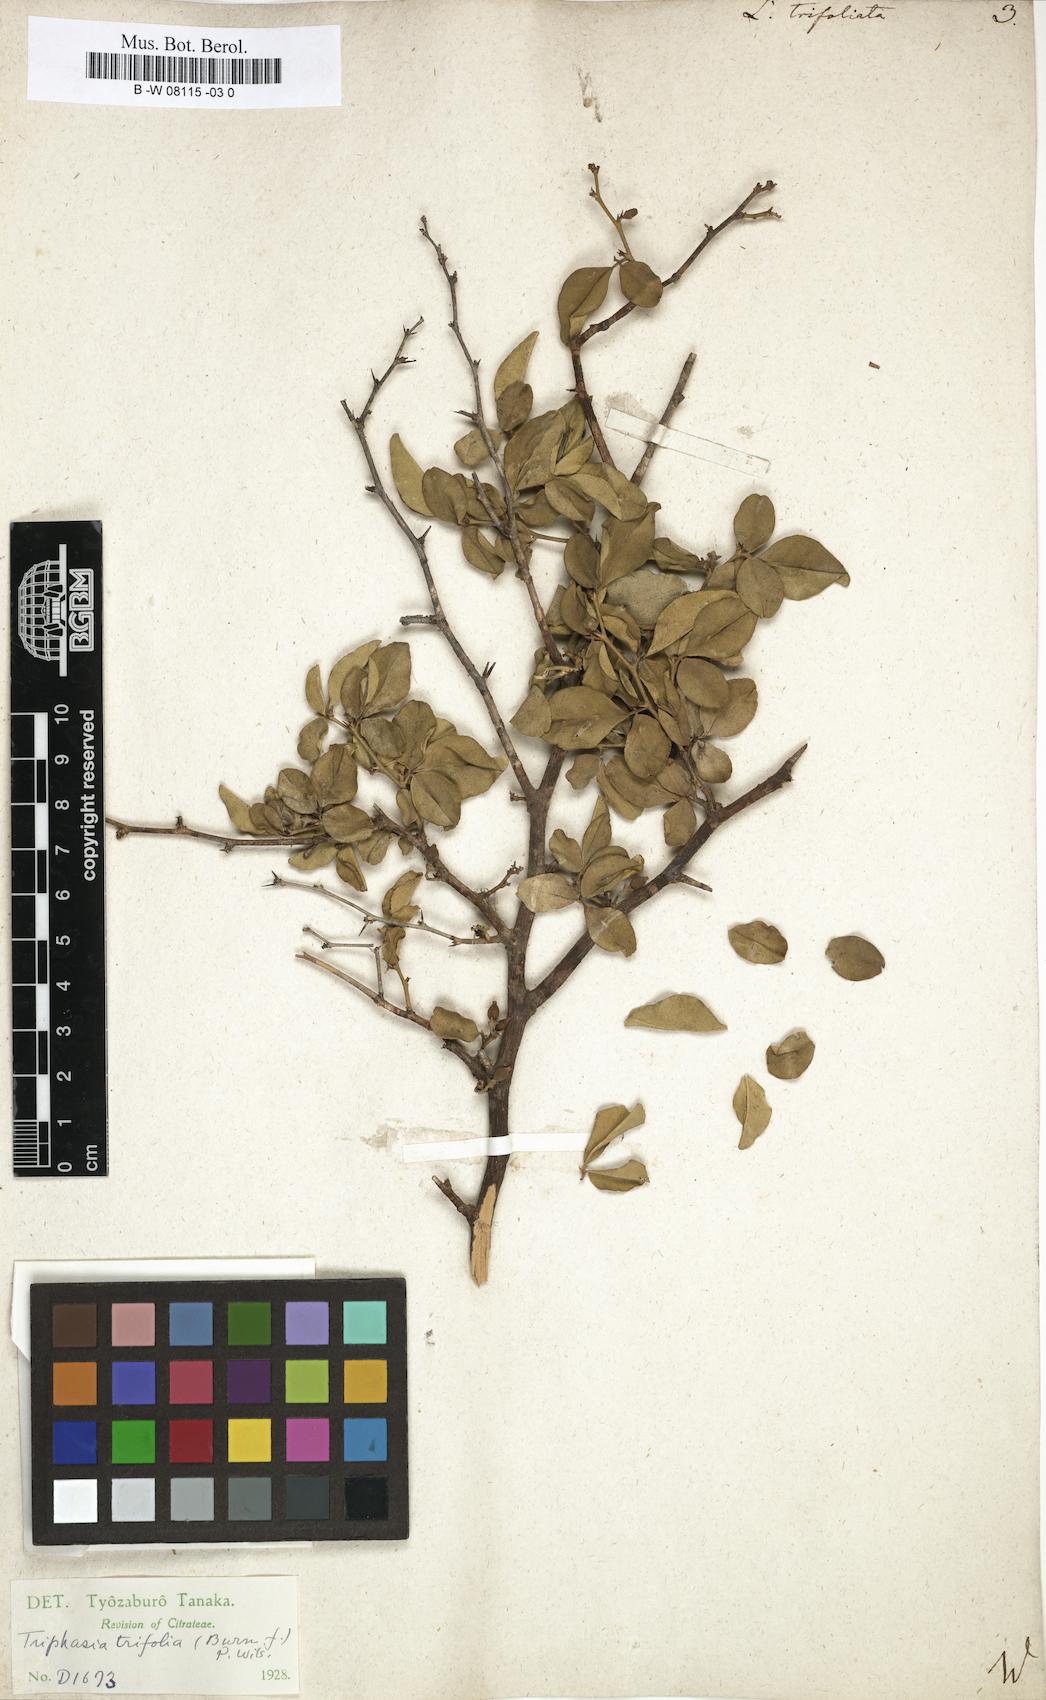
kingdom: Plantae
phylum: Tracheophyta
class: Magnoliopsida
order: Sapindales
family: Rutaceae
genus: Triphasia
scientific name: Triphasia trifolia
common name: Limeberry
